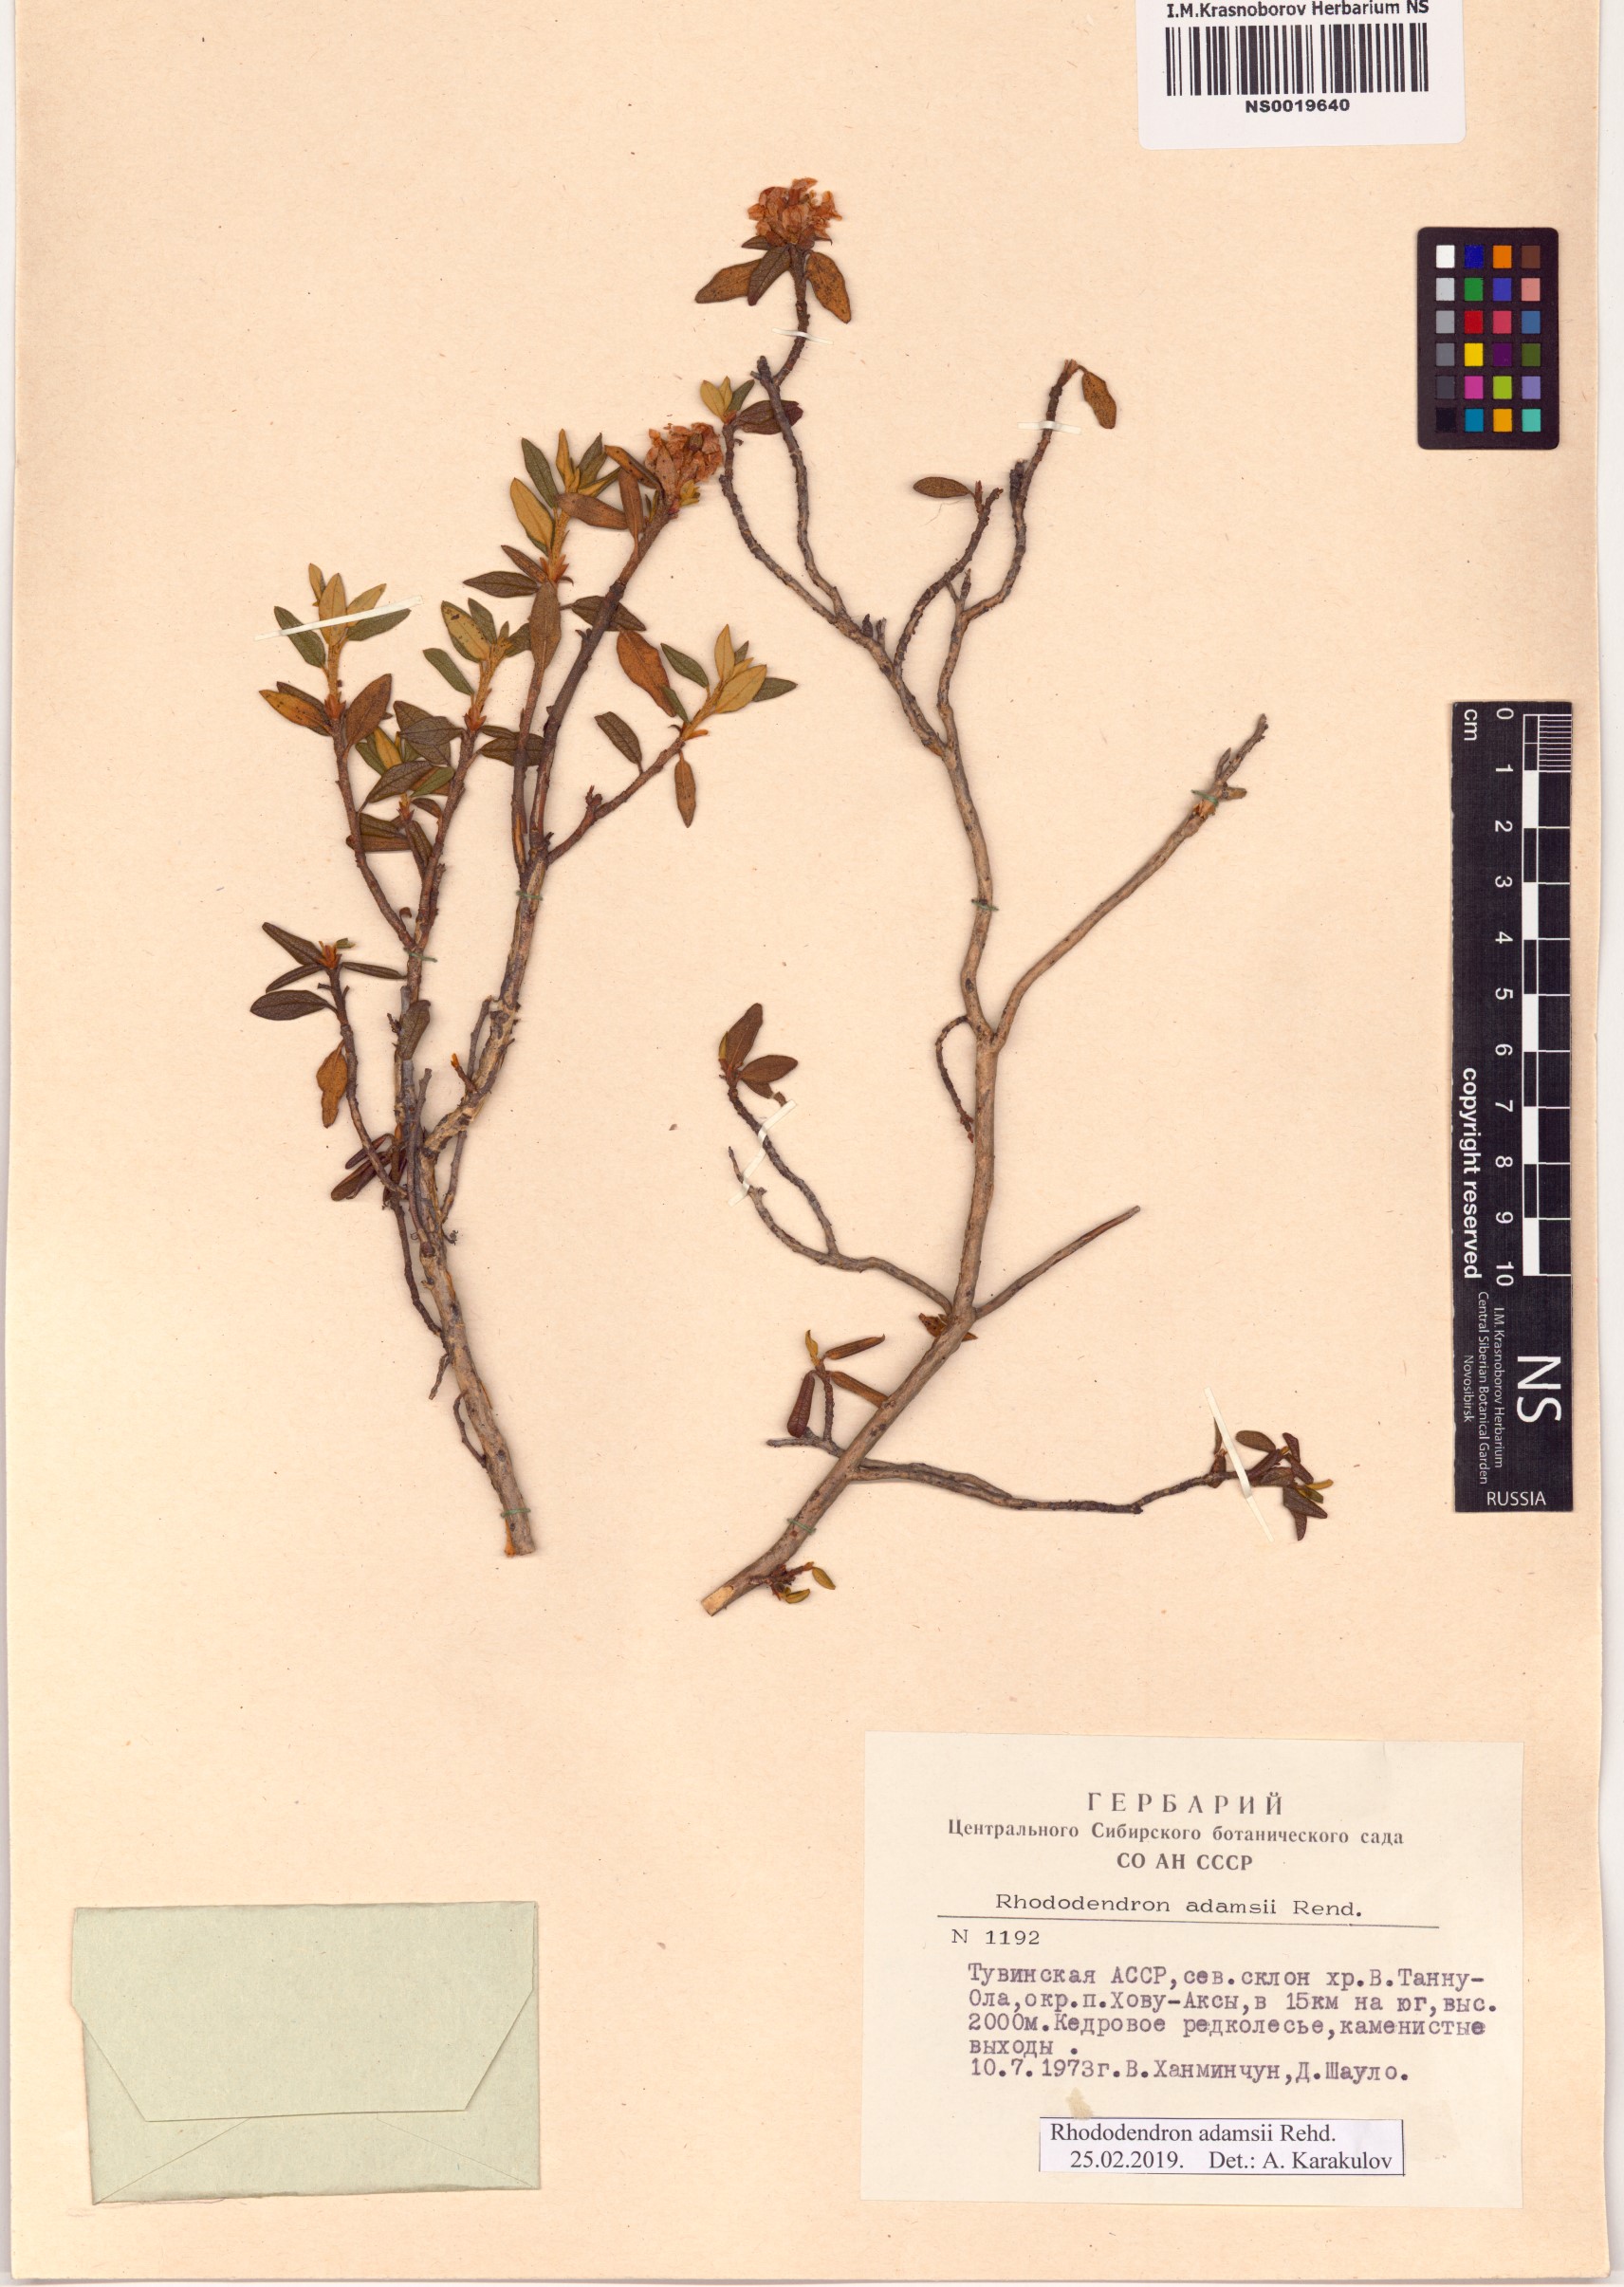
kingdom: Plantae
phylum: Tracheophyta
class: Magnoliopsida
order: Ericales
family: Ericaceae
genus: Rhododendron
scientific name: Rhododendron adamsii
